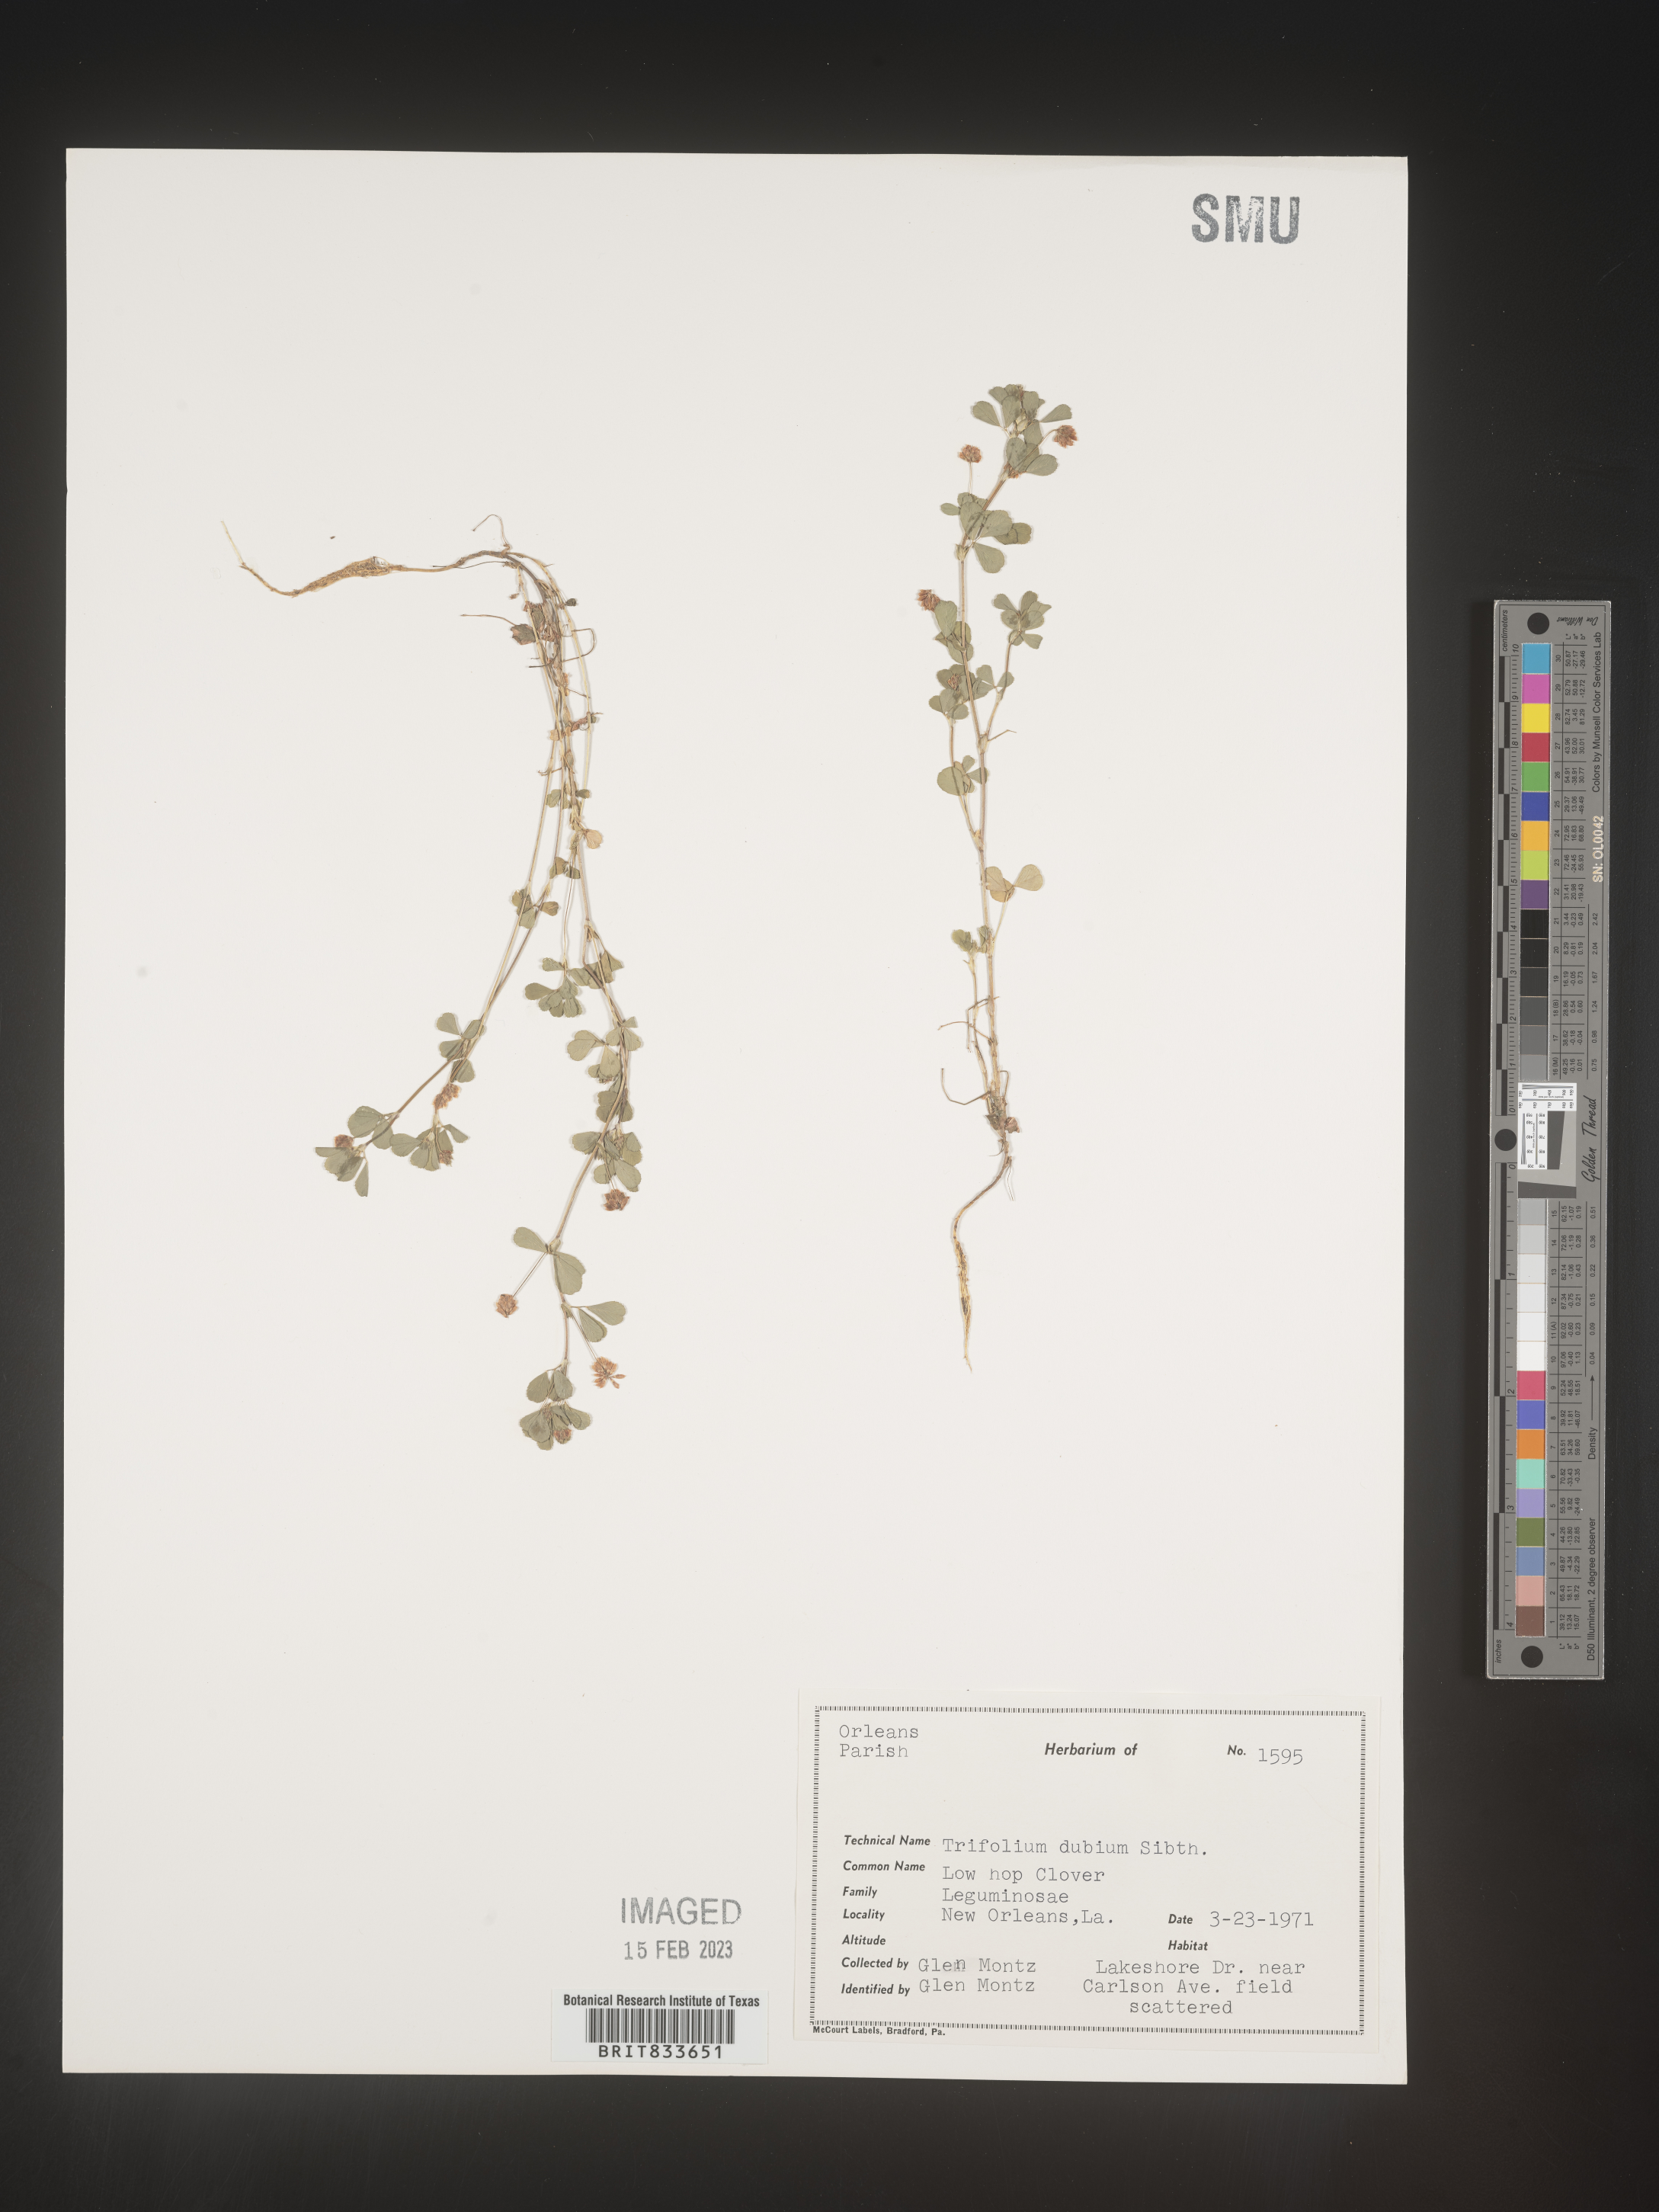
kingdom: Plantae
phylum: Tracheophyta
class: Magnoliopsida
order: Fabales
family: Fabaceae
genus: Trifolium
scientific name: Trifolium dubium
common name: Suckling clover
